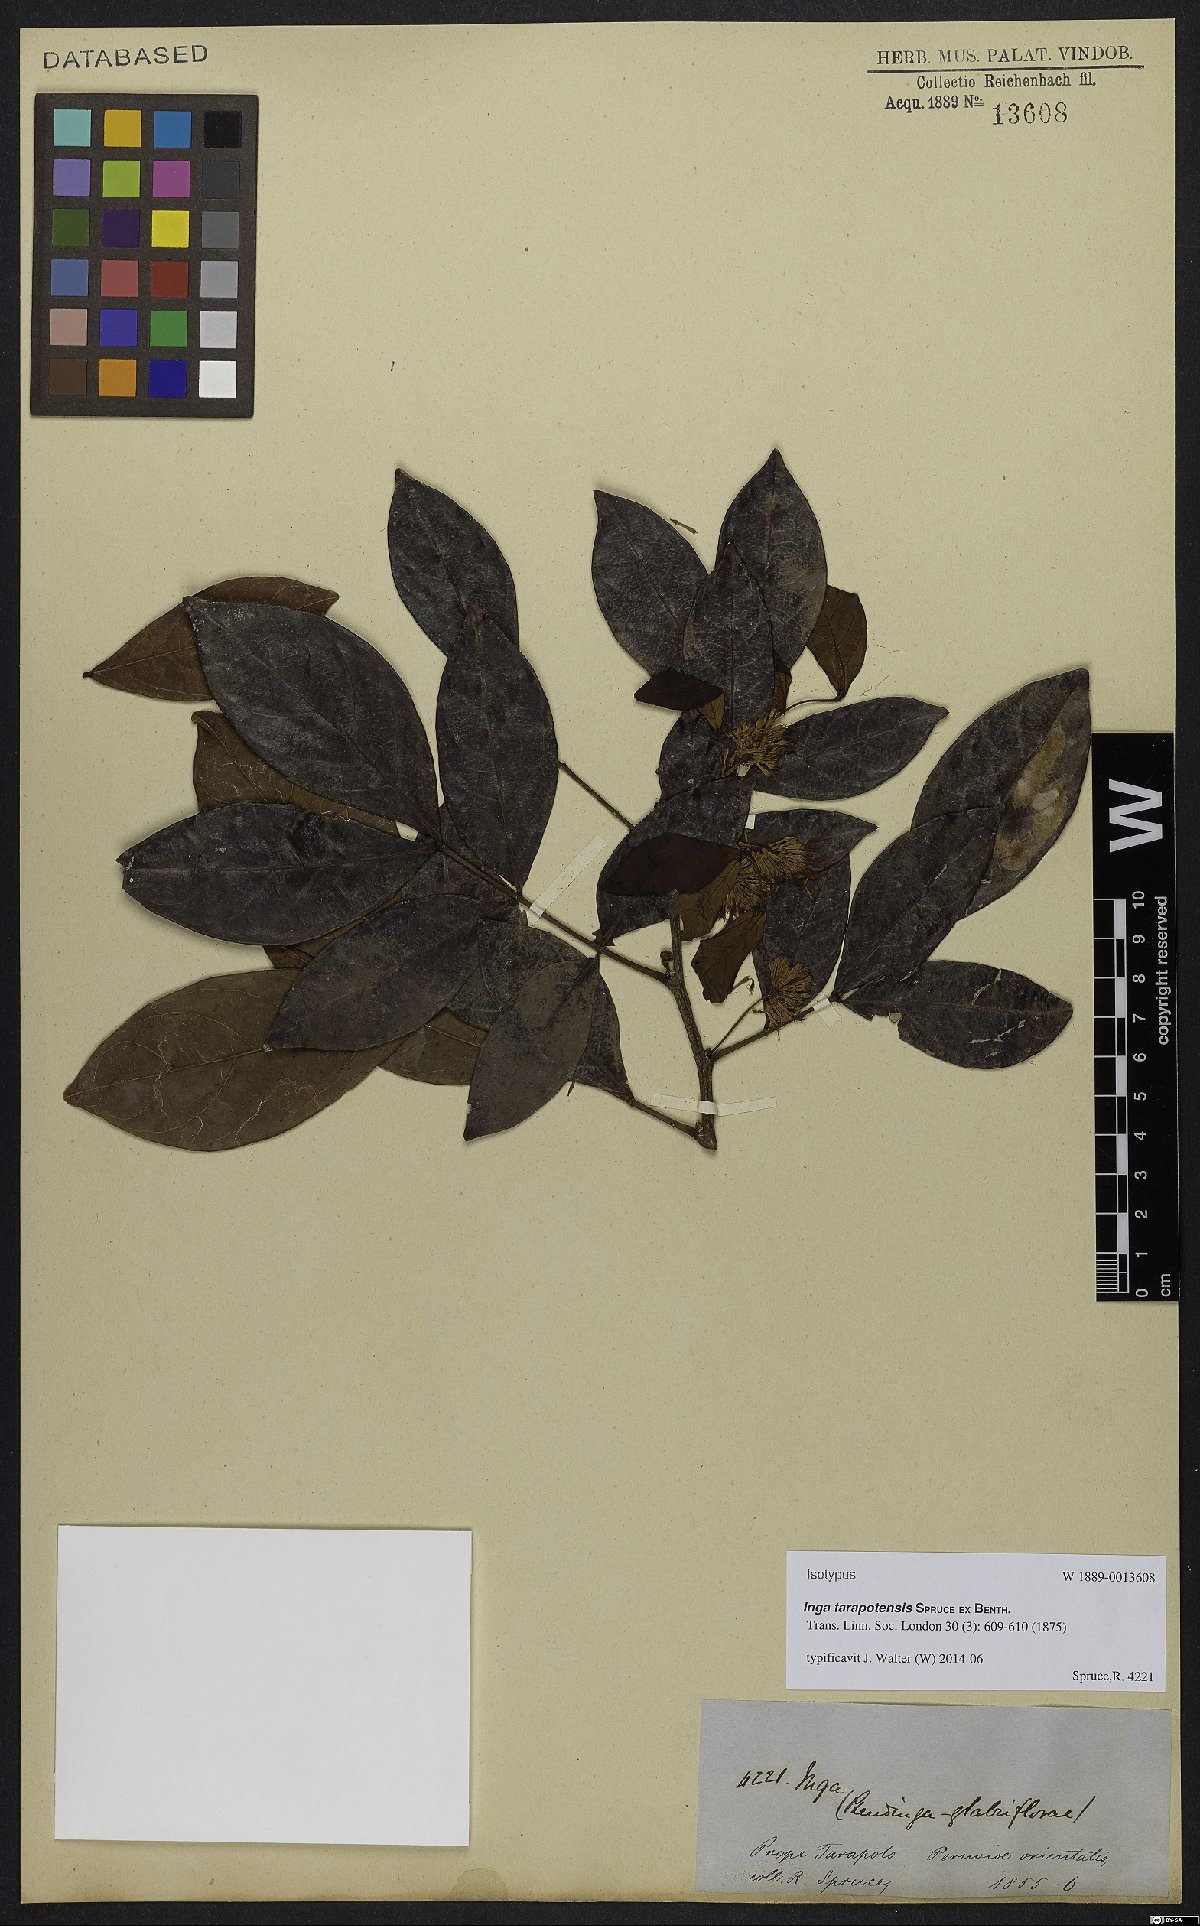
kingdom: Plantae
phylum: Tracheophyta
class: Magnoliopsida
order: Fabales
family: Fabaceae
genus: Inga
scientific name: Inga tarapotensis
